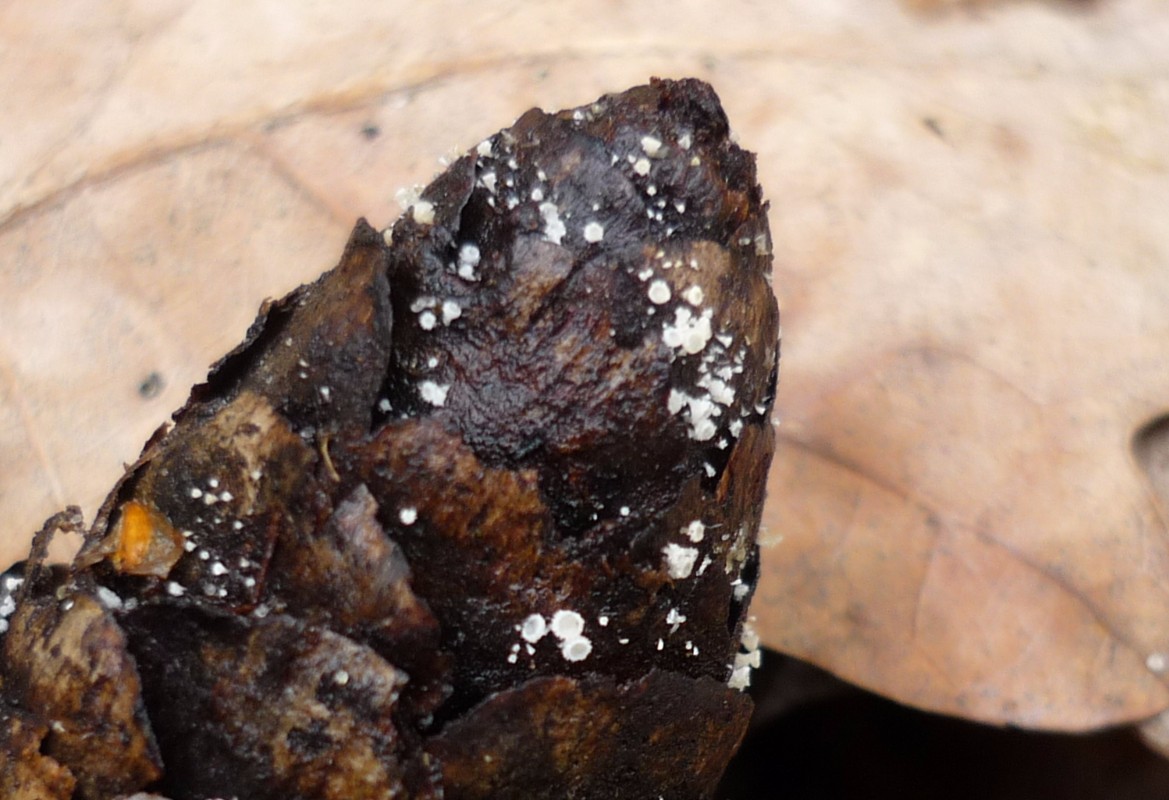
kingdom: Fungi
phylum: Ascomycota
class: Leotiomycetes
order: Helotiales
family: Lachnaceae
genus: Lachnum
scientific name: Lachnum virgineum
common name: jomfru-frynseskive
